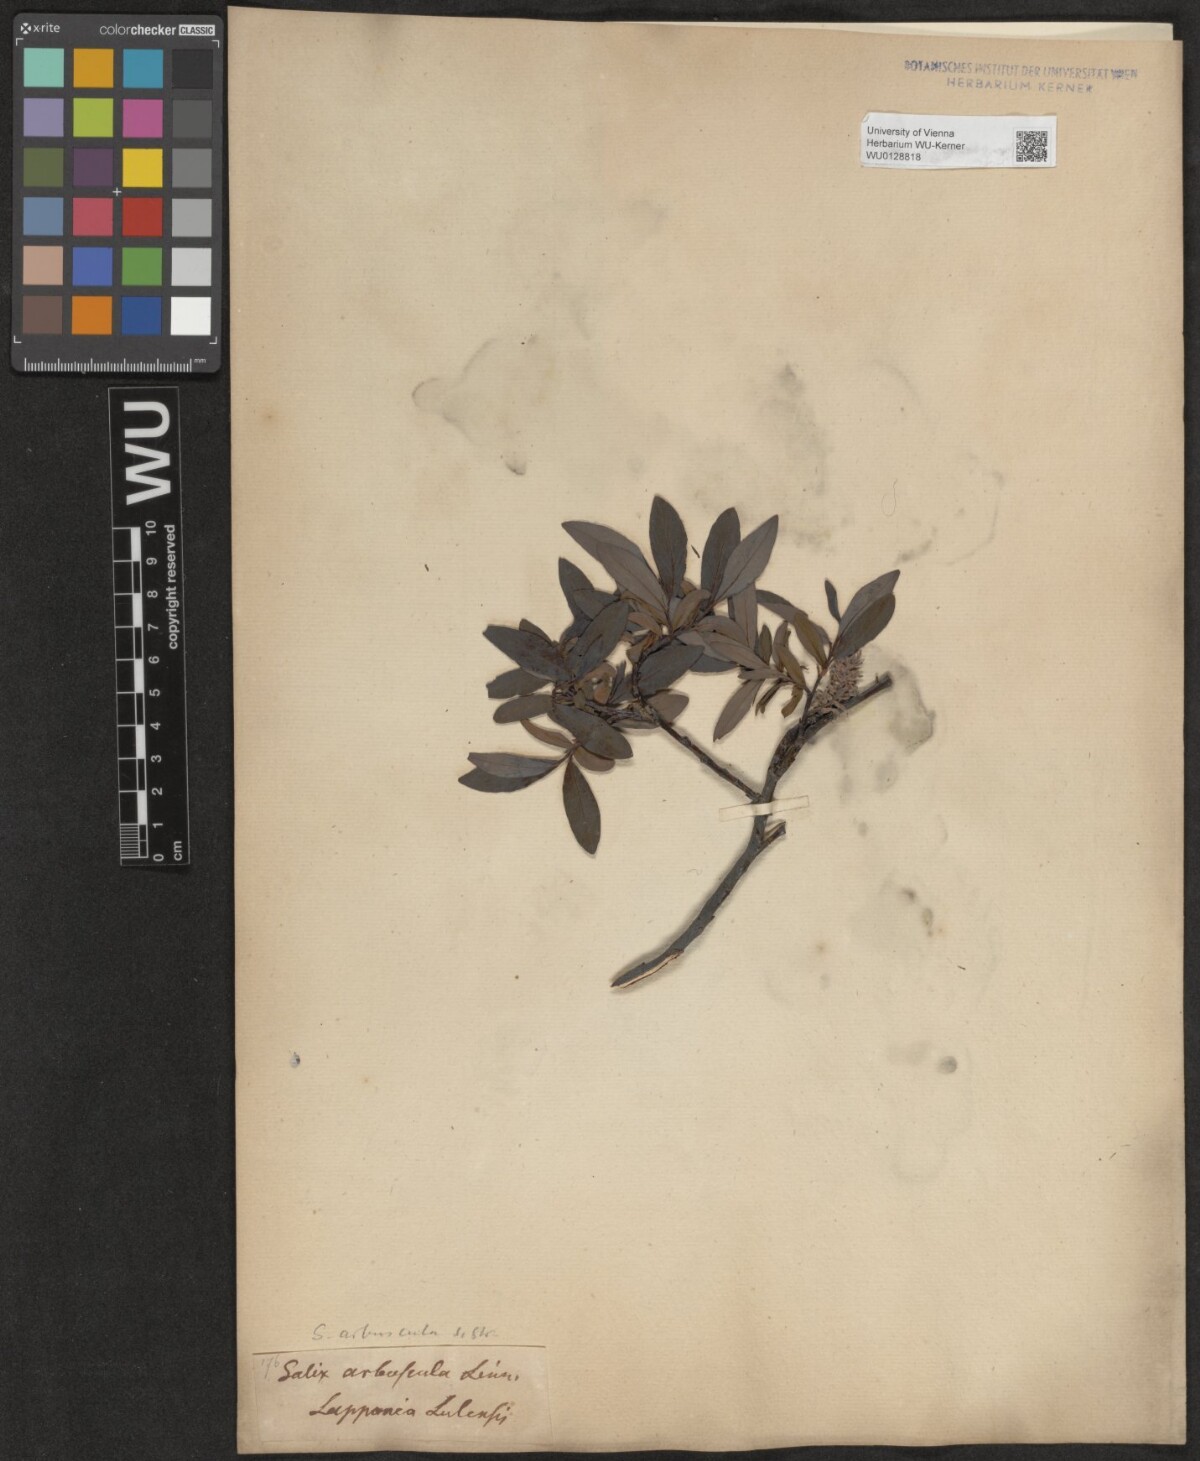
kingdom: Plantae
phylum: Tracheophyta
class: Magnoliopsida
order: Malpighiales
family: Salicaceae
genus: Salix
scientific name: Salix arbuscula
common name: Mountain willow
